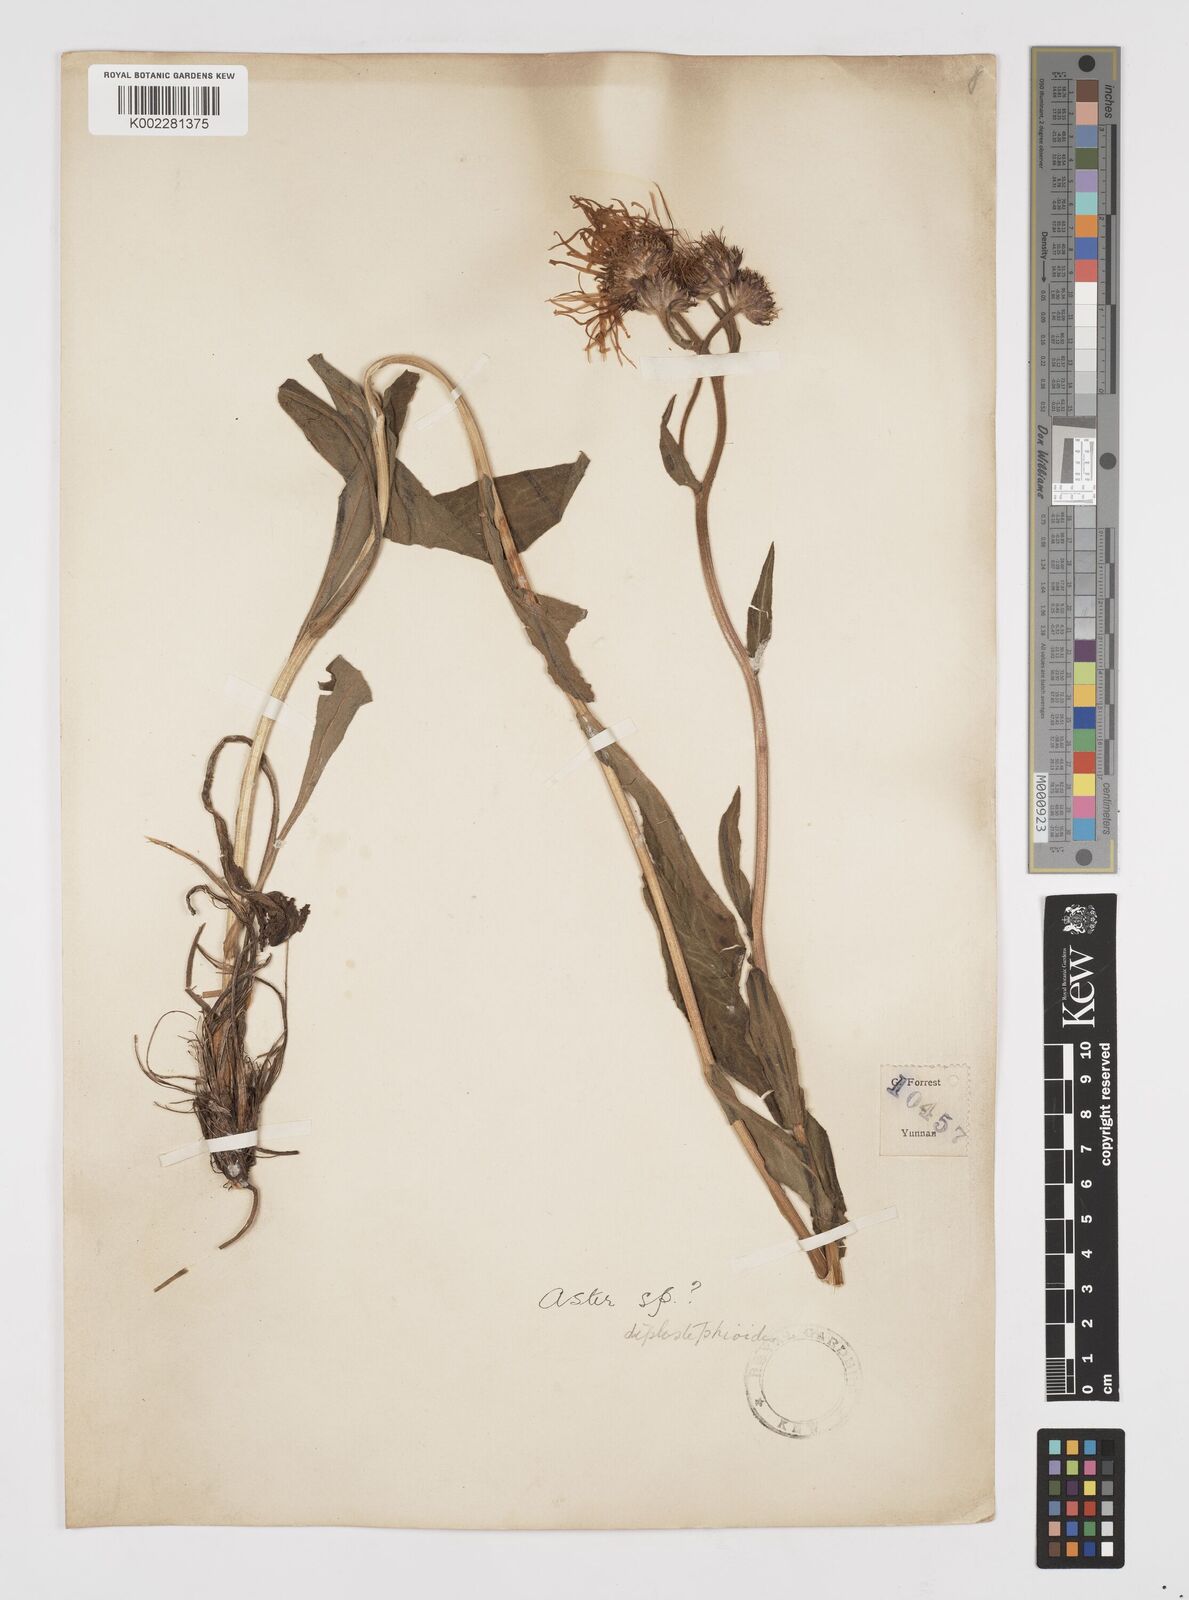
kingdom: Plantae
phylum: Tracheophyta
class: Magnoliopsida
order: Asterales
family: Asteraceae
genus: Tibetiodes
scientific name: Tibetiodes diplostephioides
